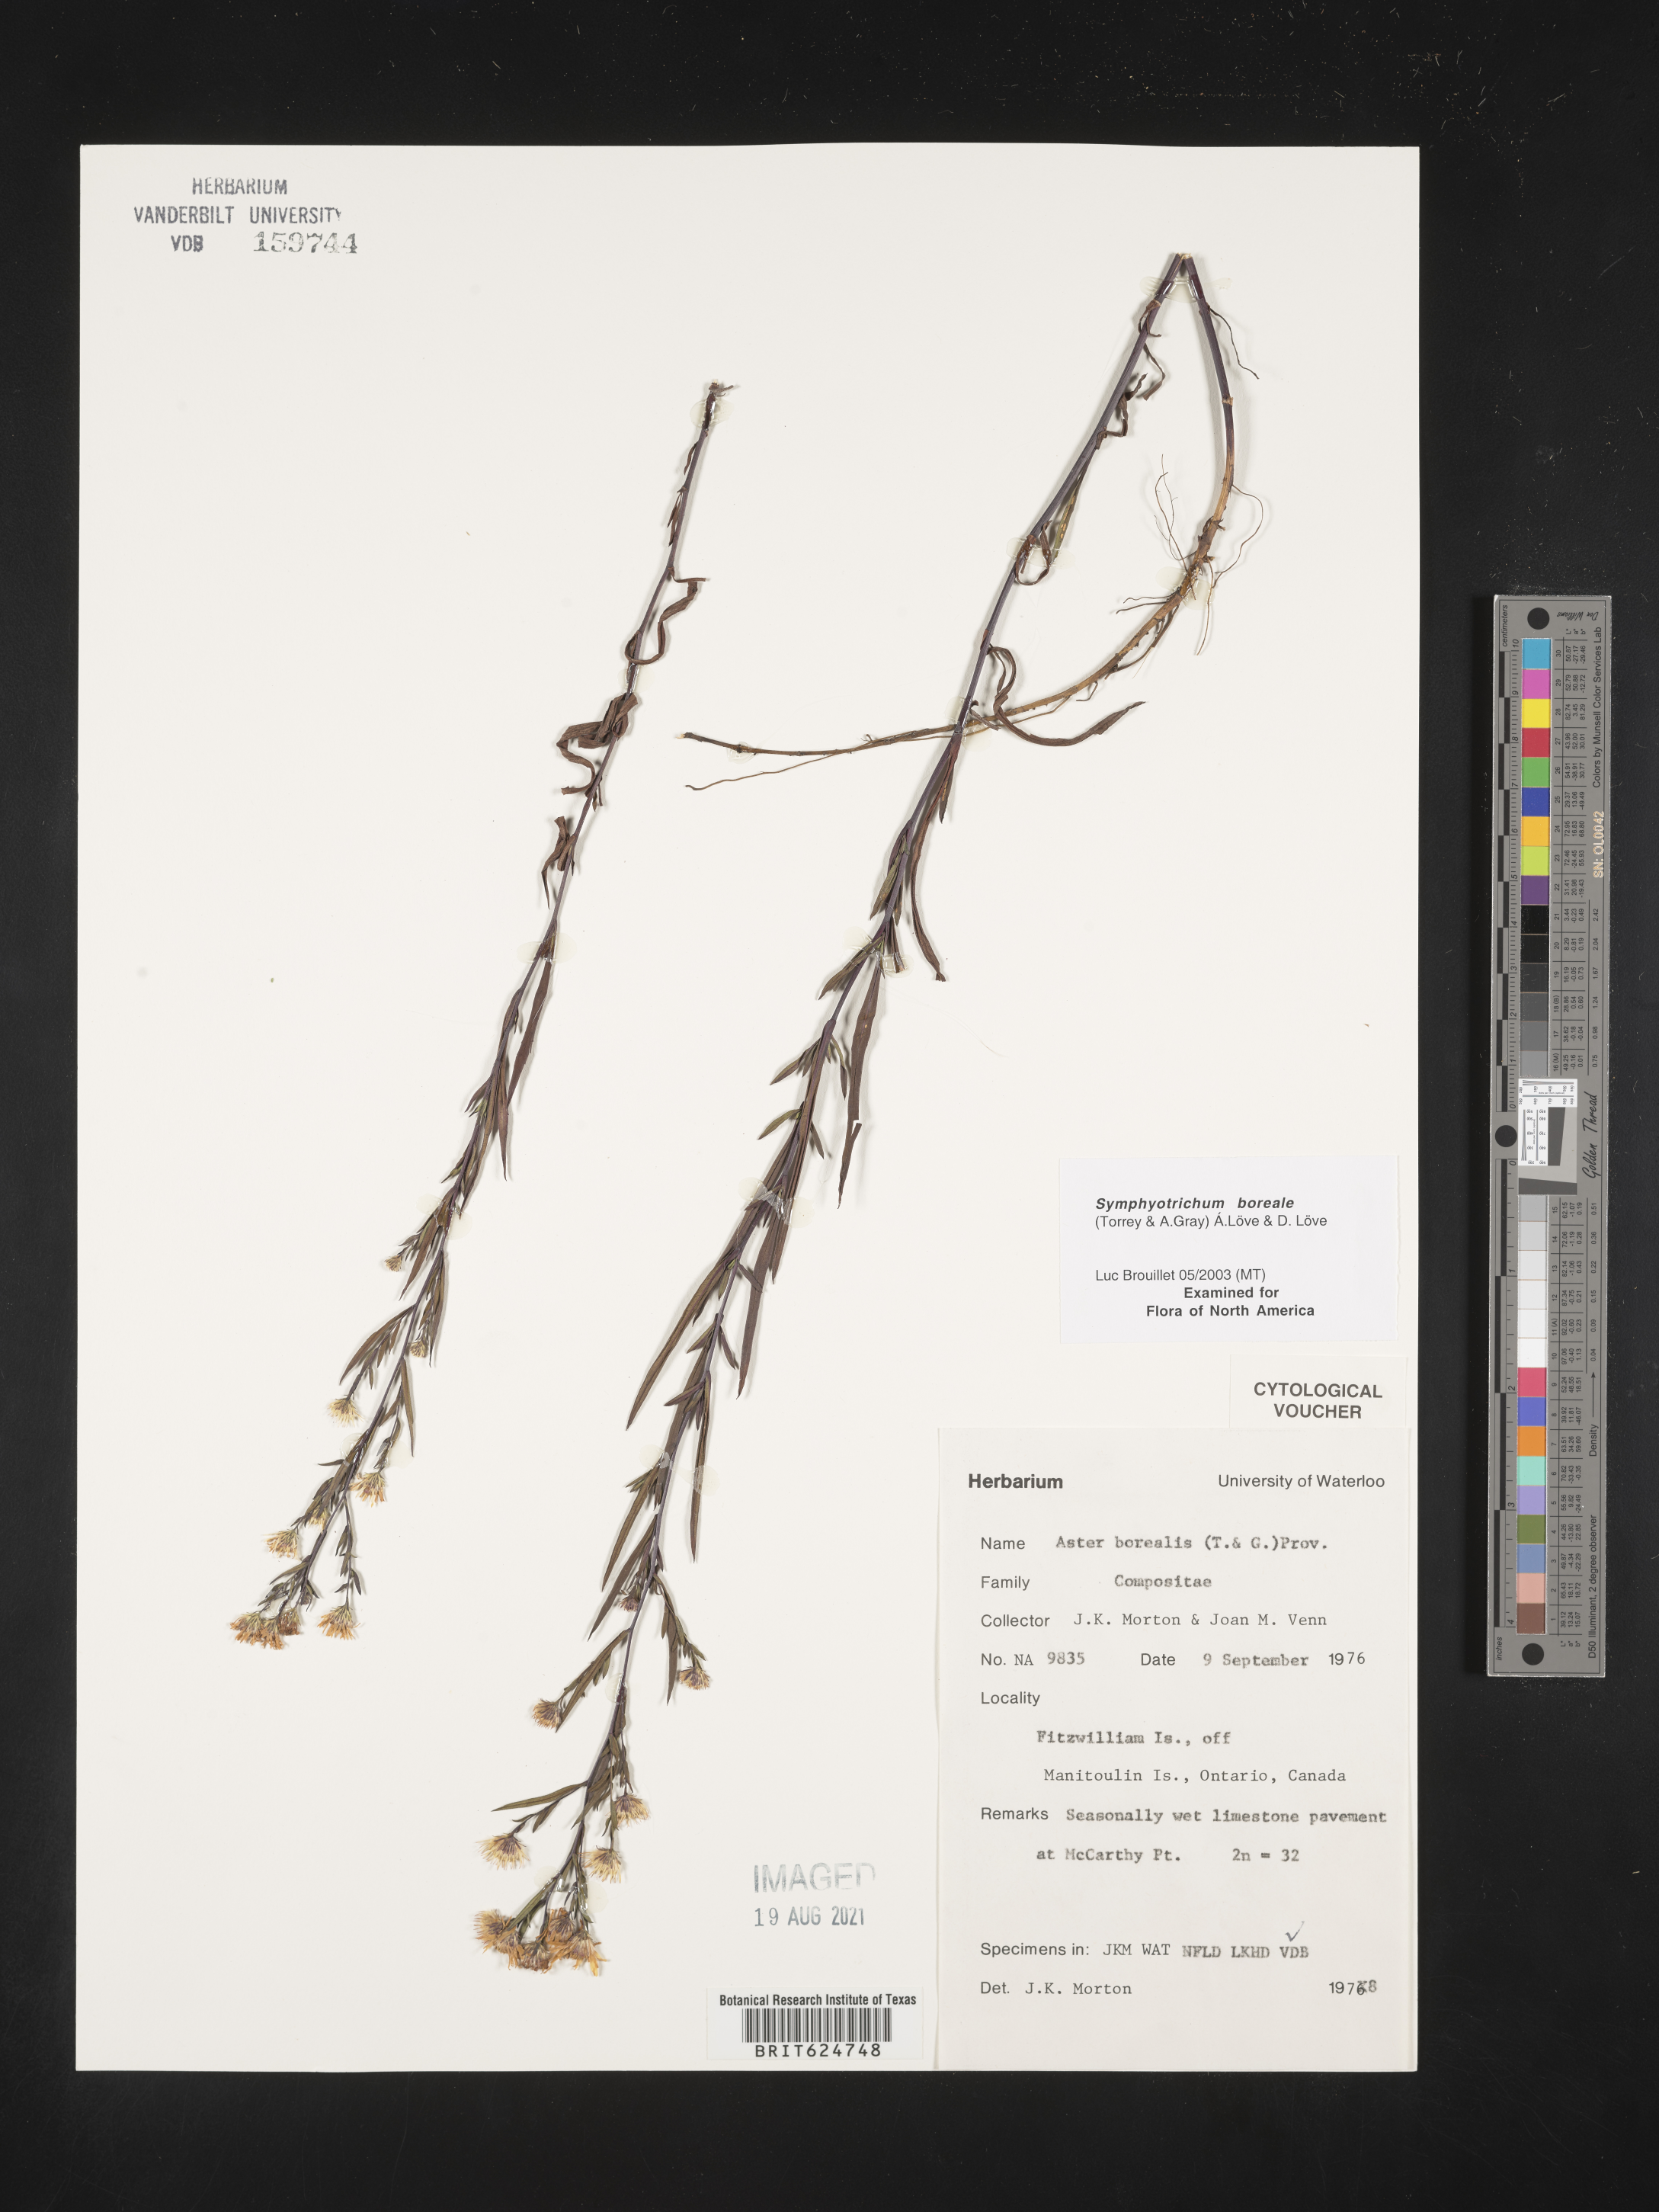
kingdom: Plantae
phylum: Tracheophyta
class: Magnoliopsida
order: Asterales
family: Asteraceae
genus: Symphyotrichum
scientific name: Symphyotrichum boreale
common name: Northern bog aster
